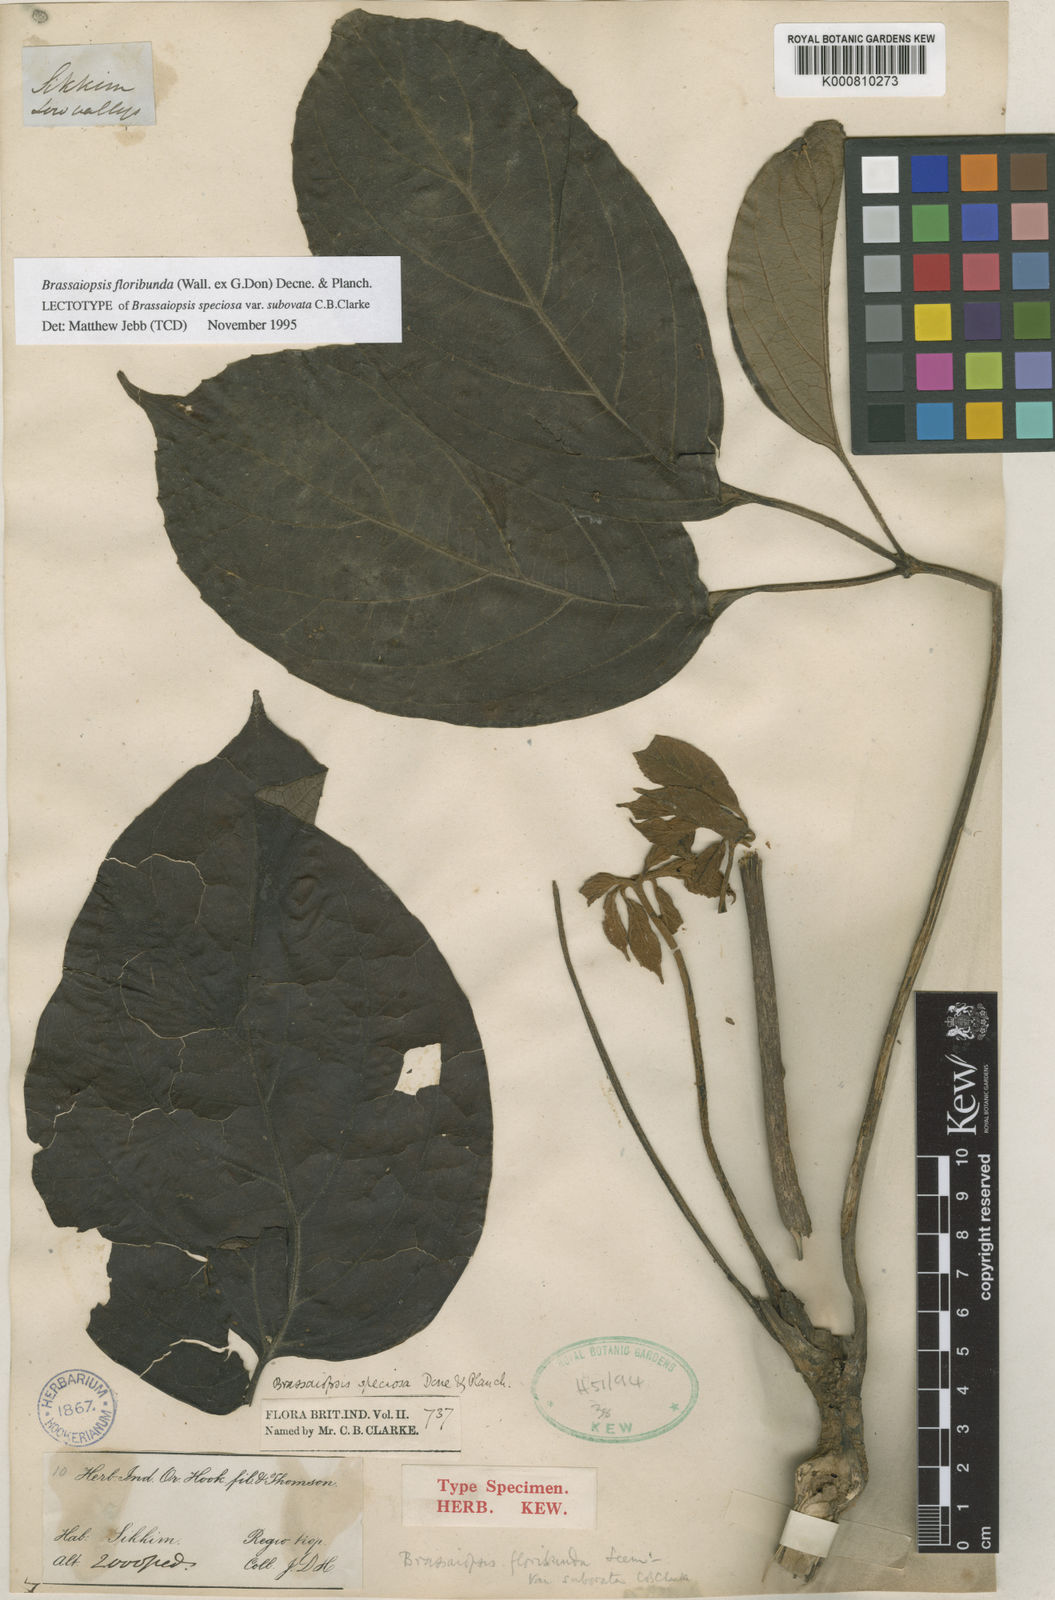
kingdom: Plantae
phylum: Tracheophyta
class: Magnoliopsida
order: Apiales
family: Araliaceae
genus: Brassaiopsis
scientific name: Brassaiopsis glomerulata
